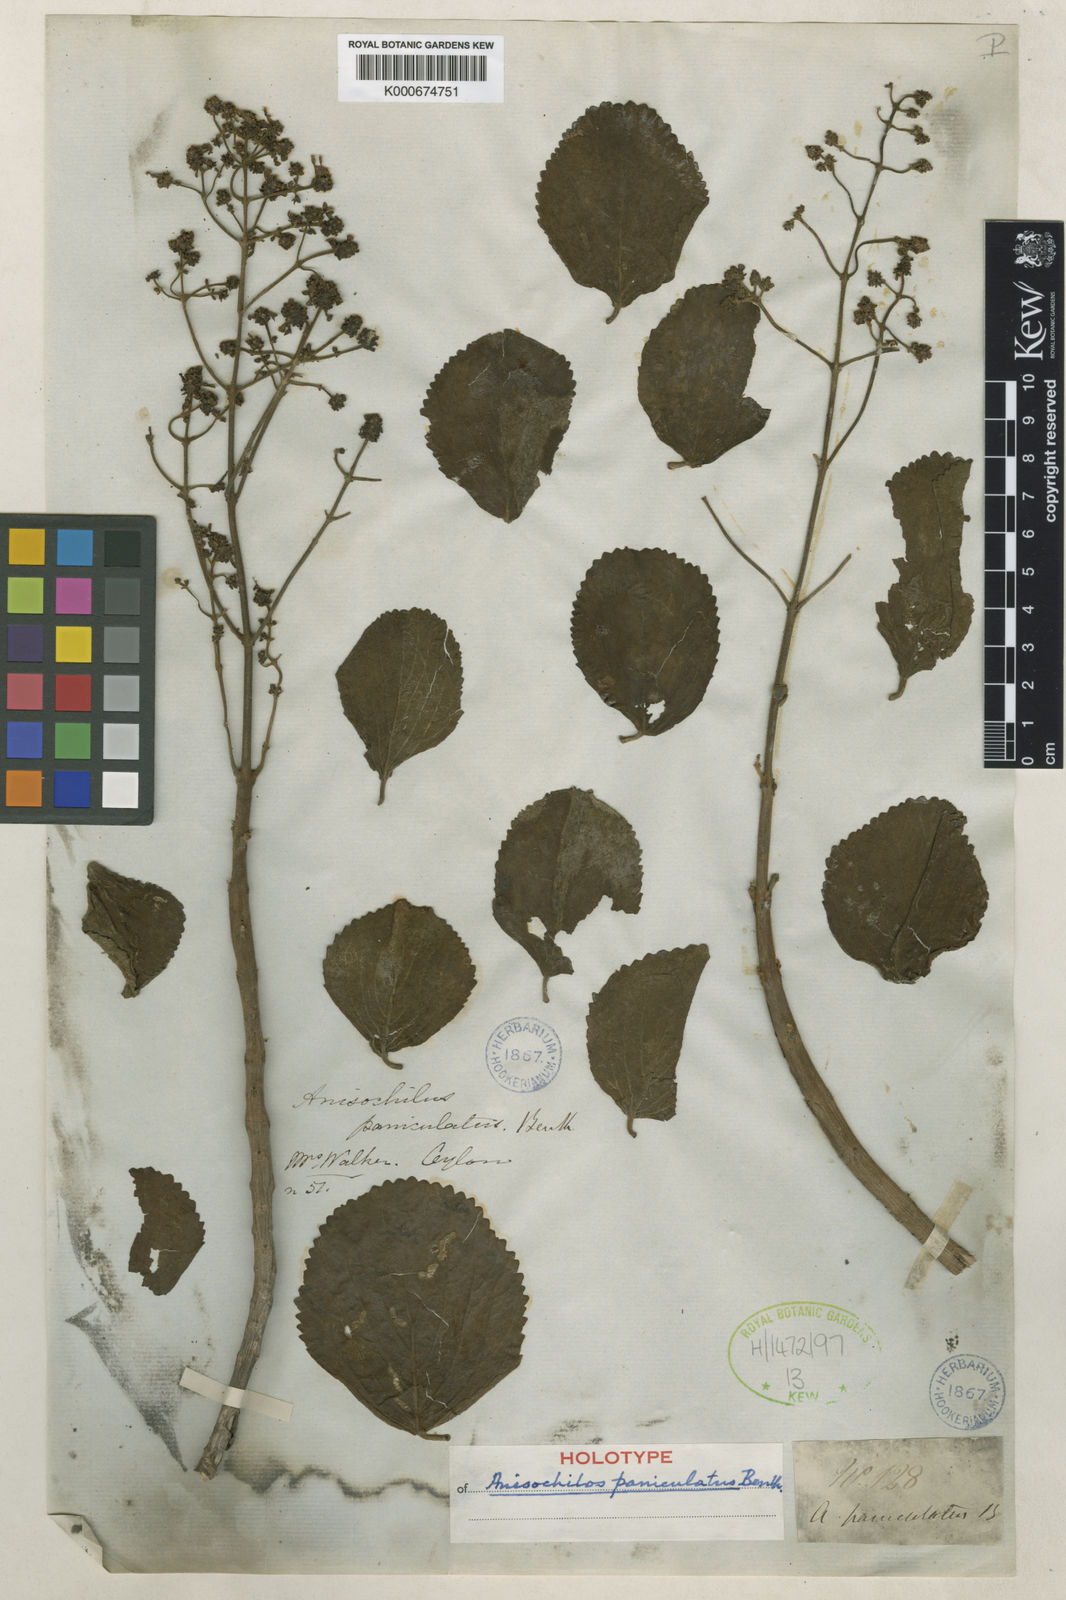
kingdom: Plantae
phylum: Tracheophyta
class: Magnoliopsida
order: Lamiales
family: Lamiaceae
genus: Coleus
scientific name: Coleus divaricatus
